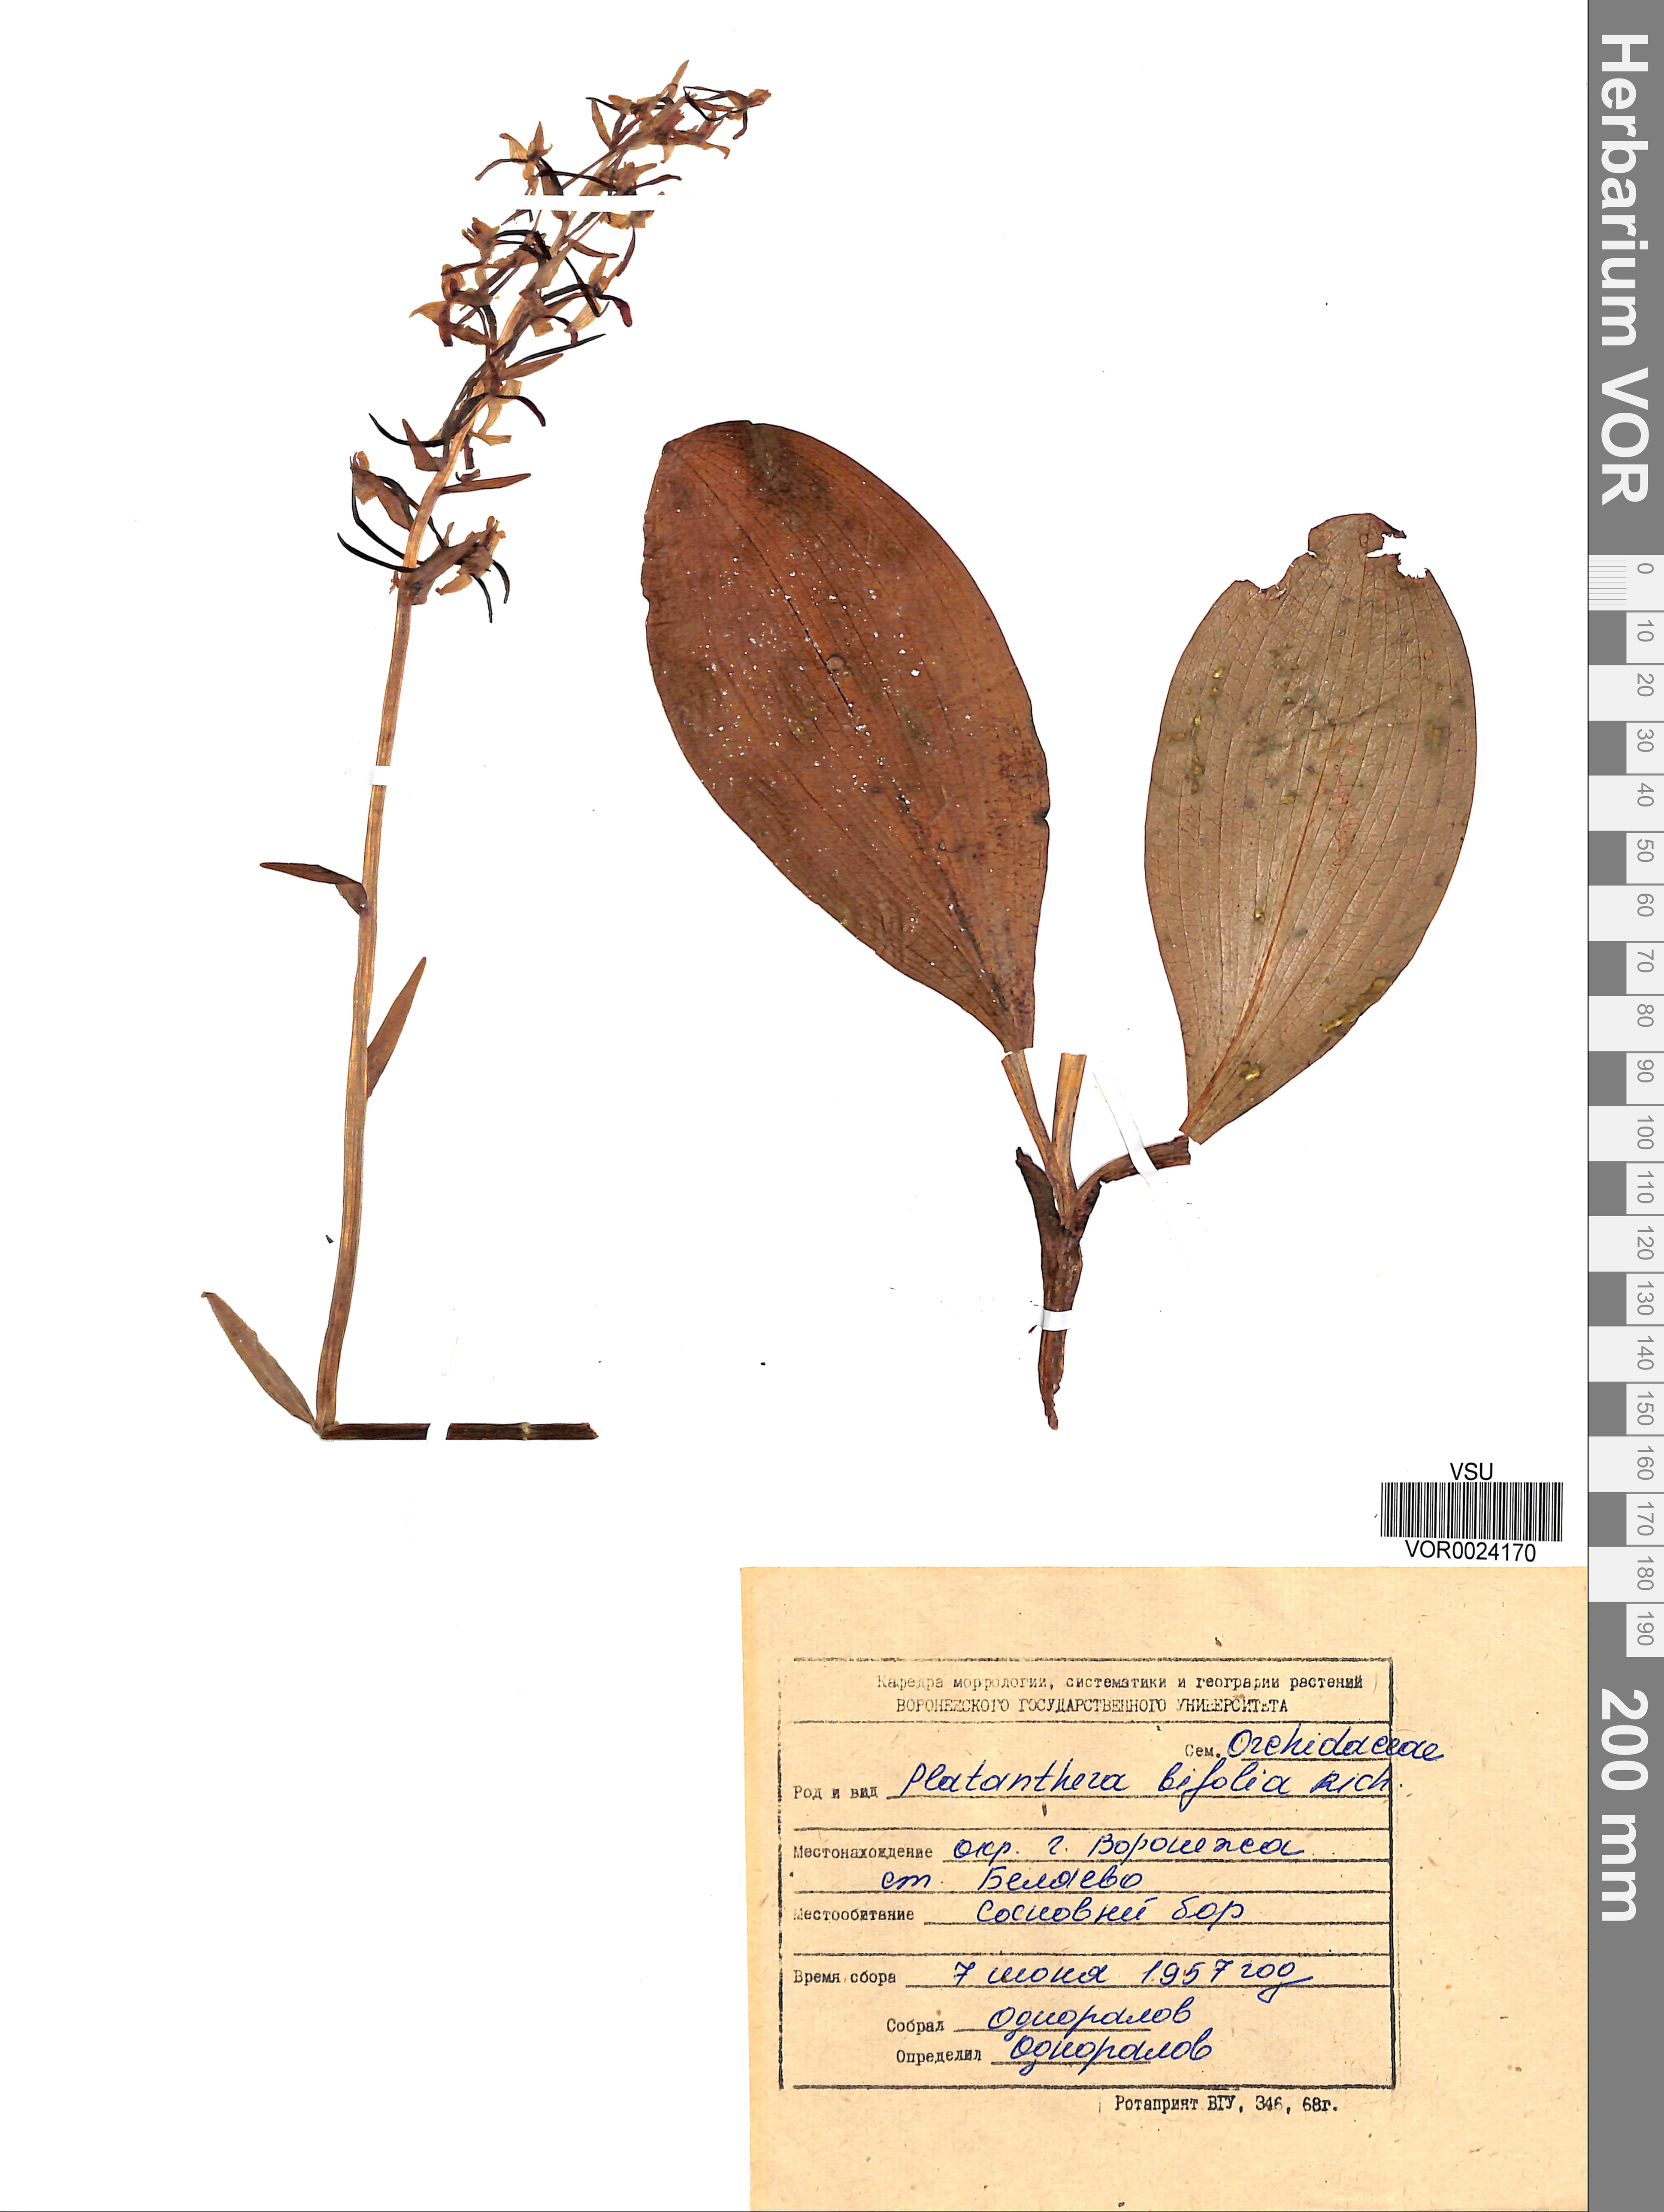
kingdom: Plantae
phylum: Tracheophyta
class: Liliopsida
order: Asparagales
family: Orchidaceae
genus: Platanthera
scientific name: Platanthera bifolia
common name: Lesser butterfly-orchid
